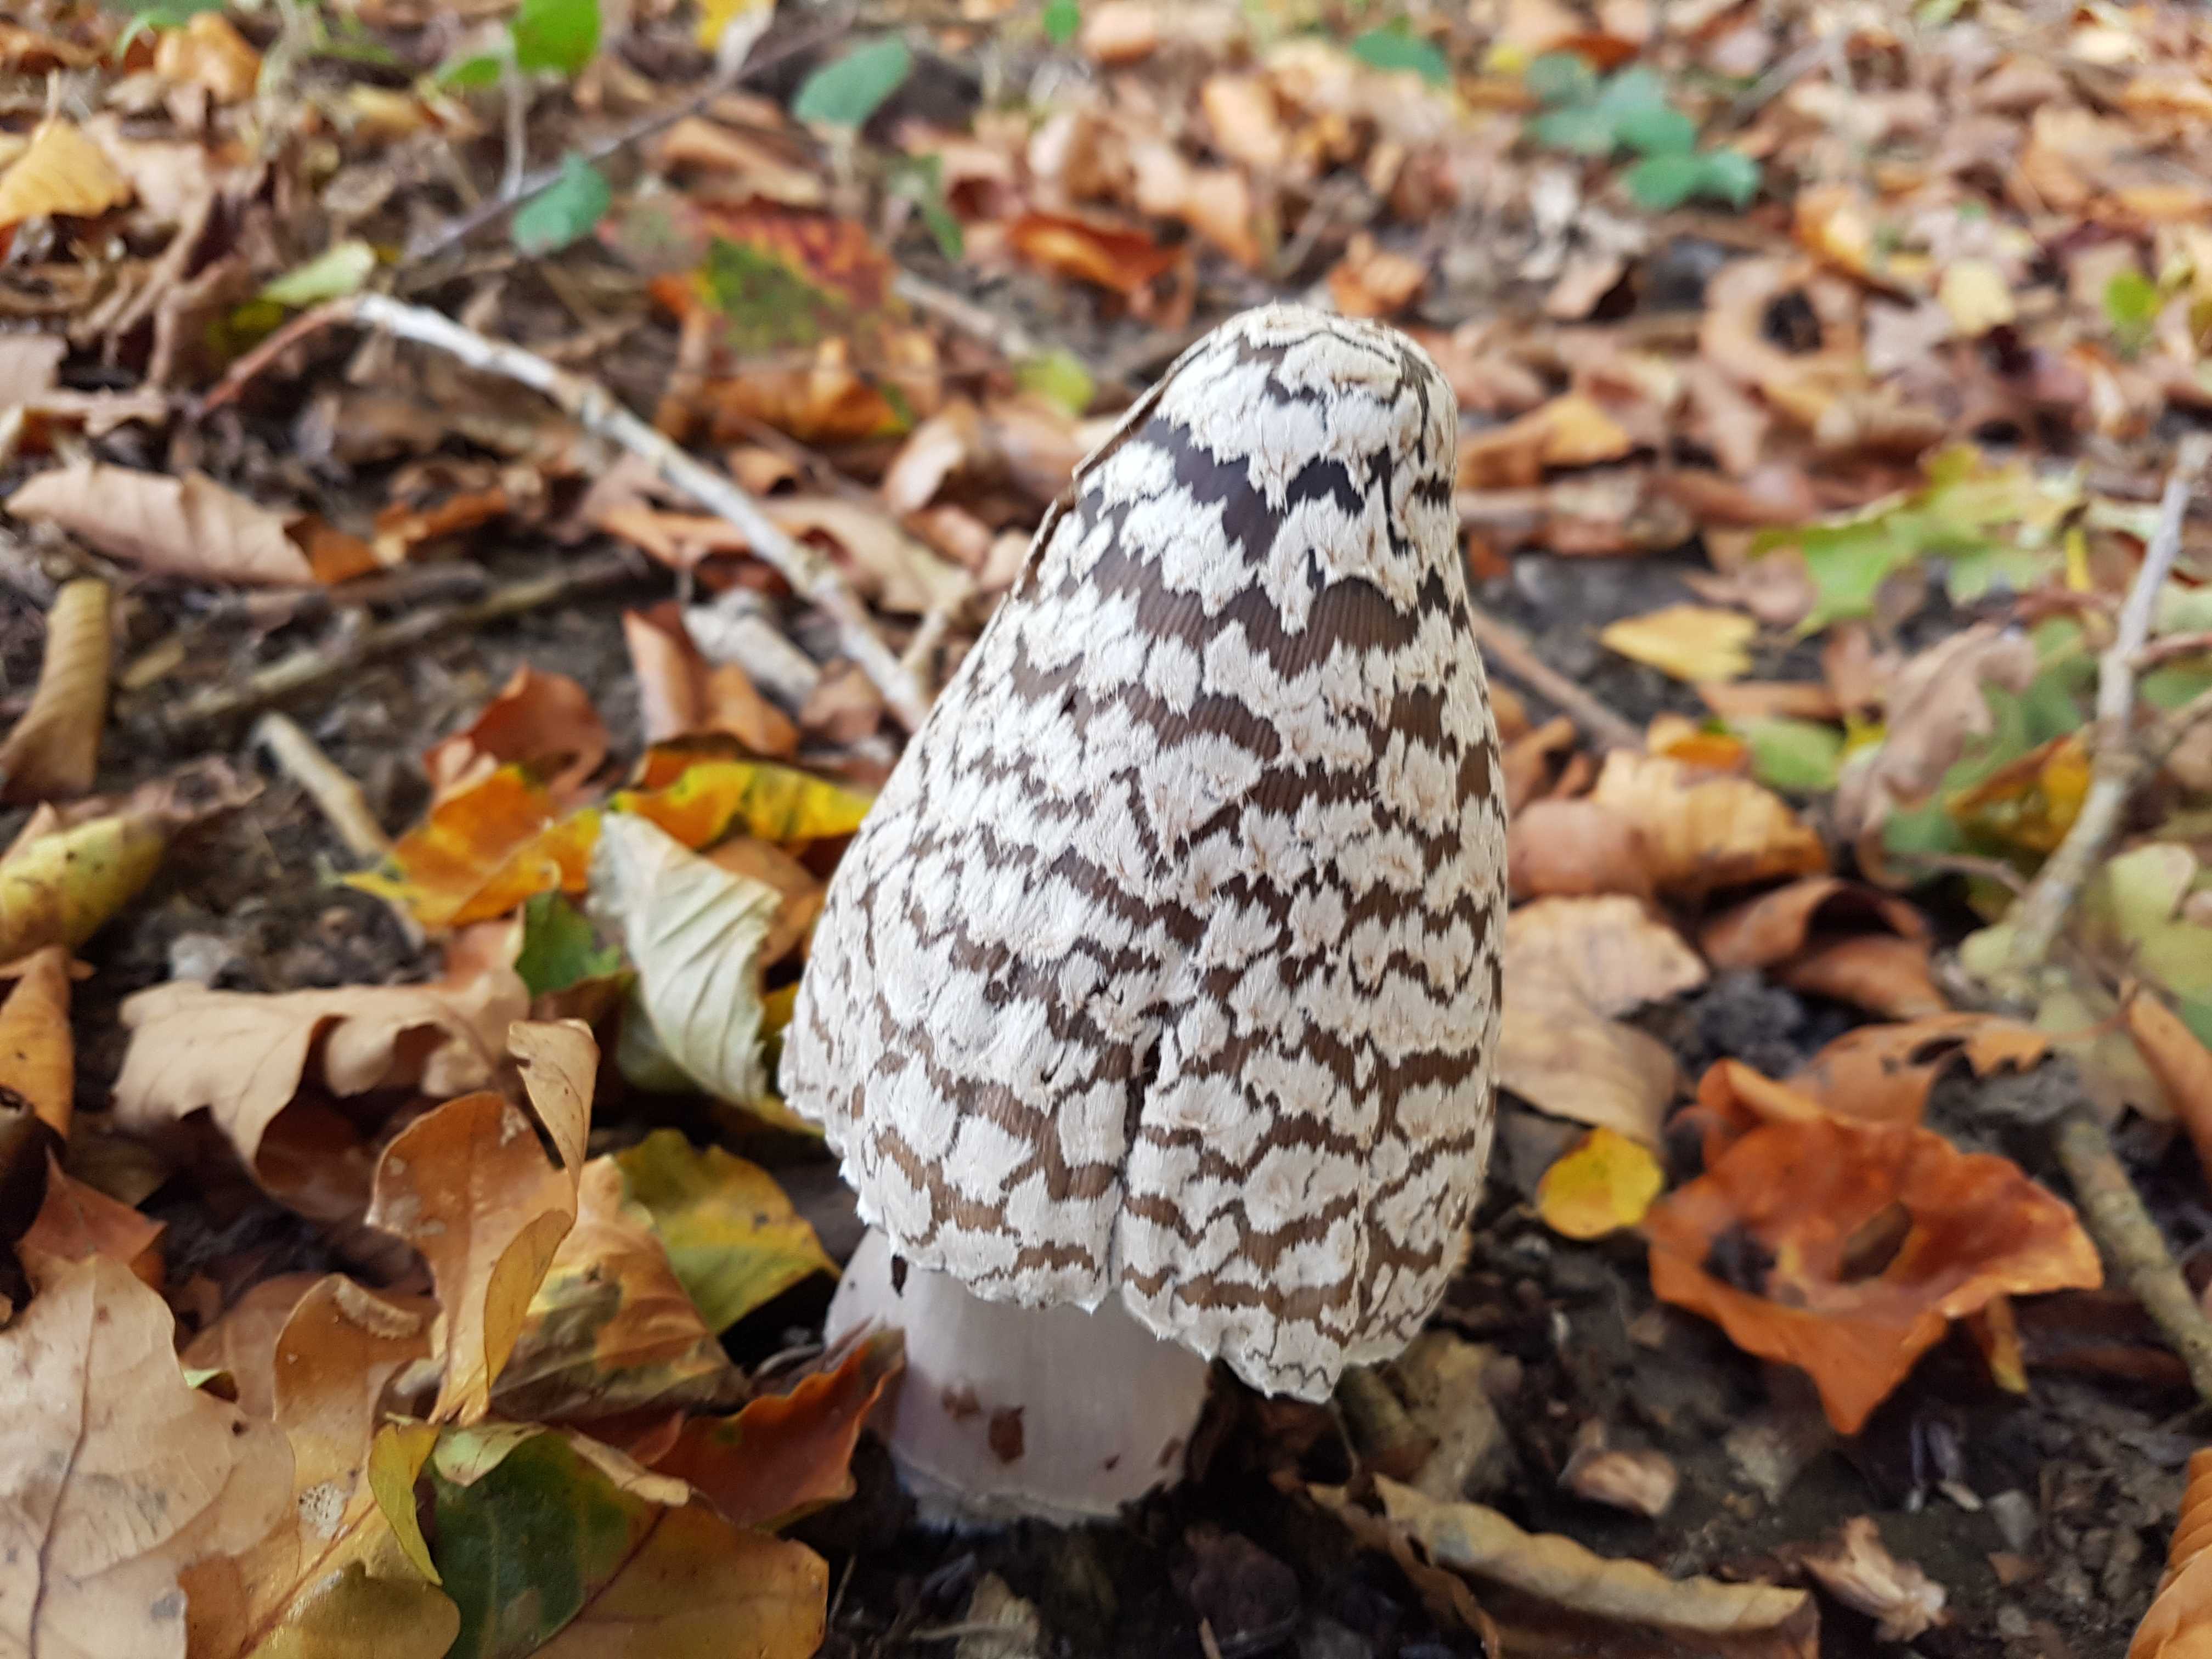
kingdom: Fungi
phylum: Basidiomycota
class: Agaricomycetes
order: Agaricales
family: Psathyrellaceae
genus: Coprinopsis
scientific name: Coprinopsis picacea
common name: skade-blækhat
